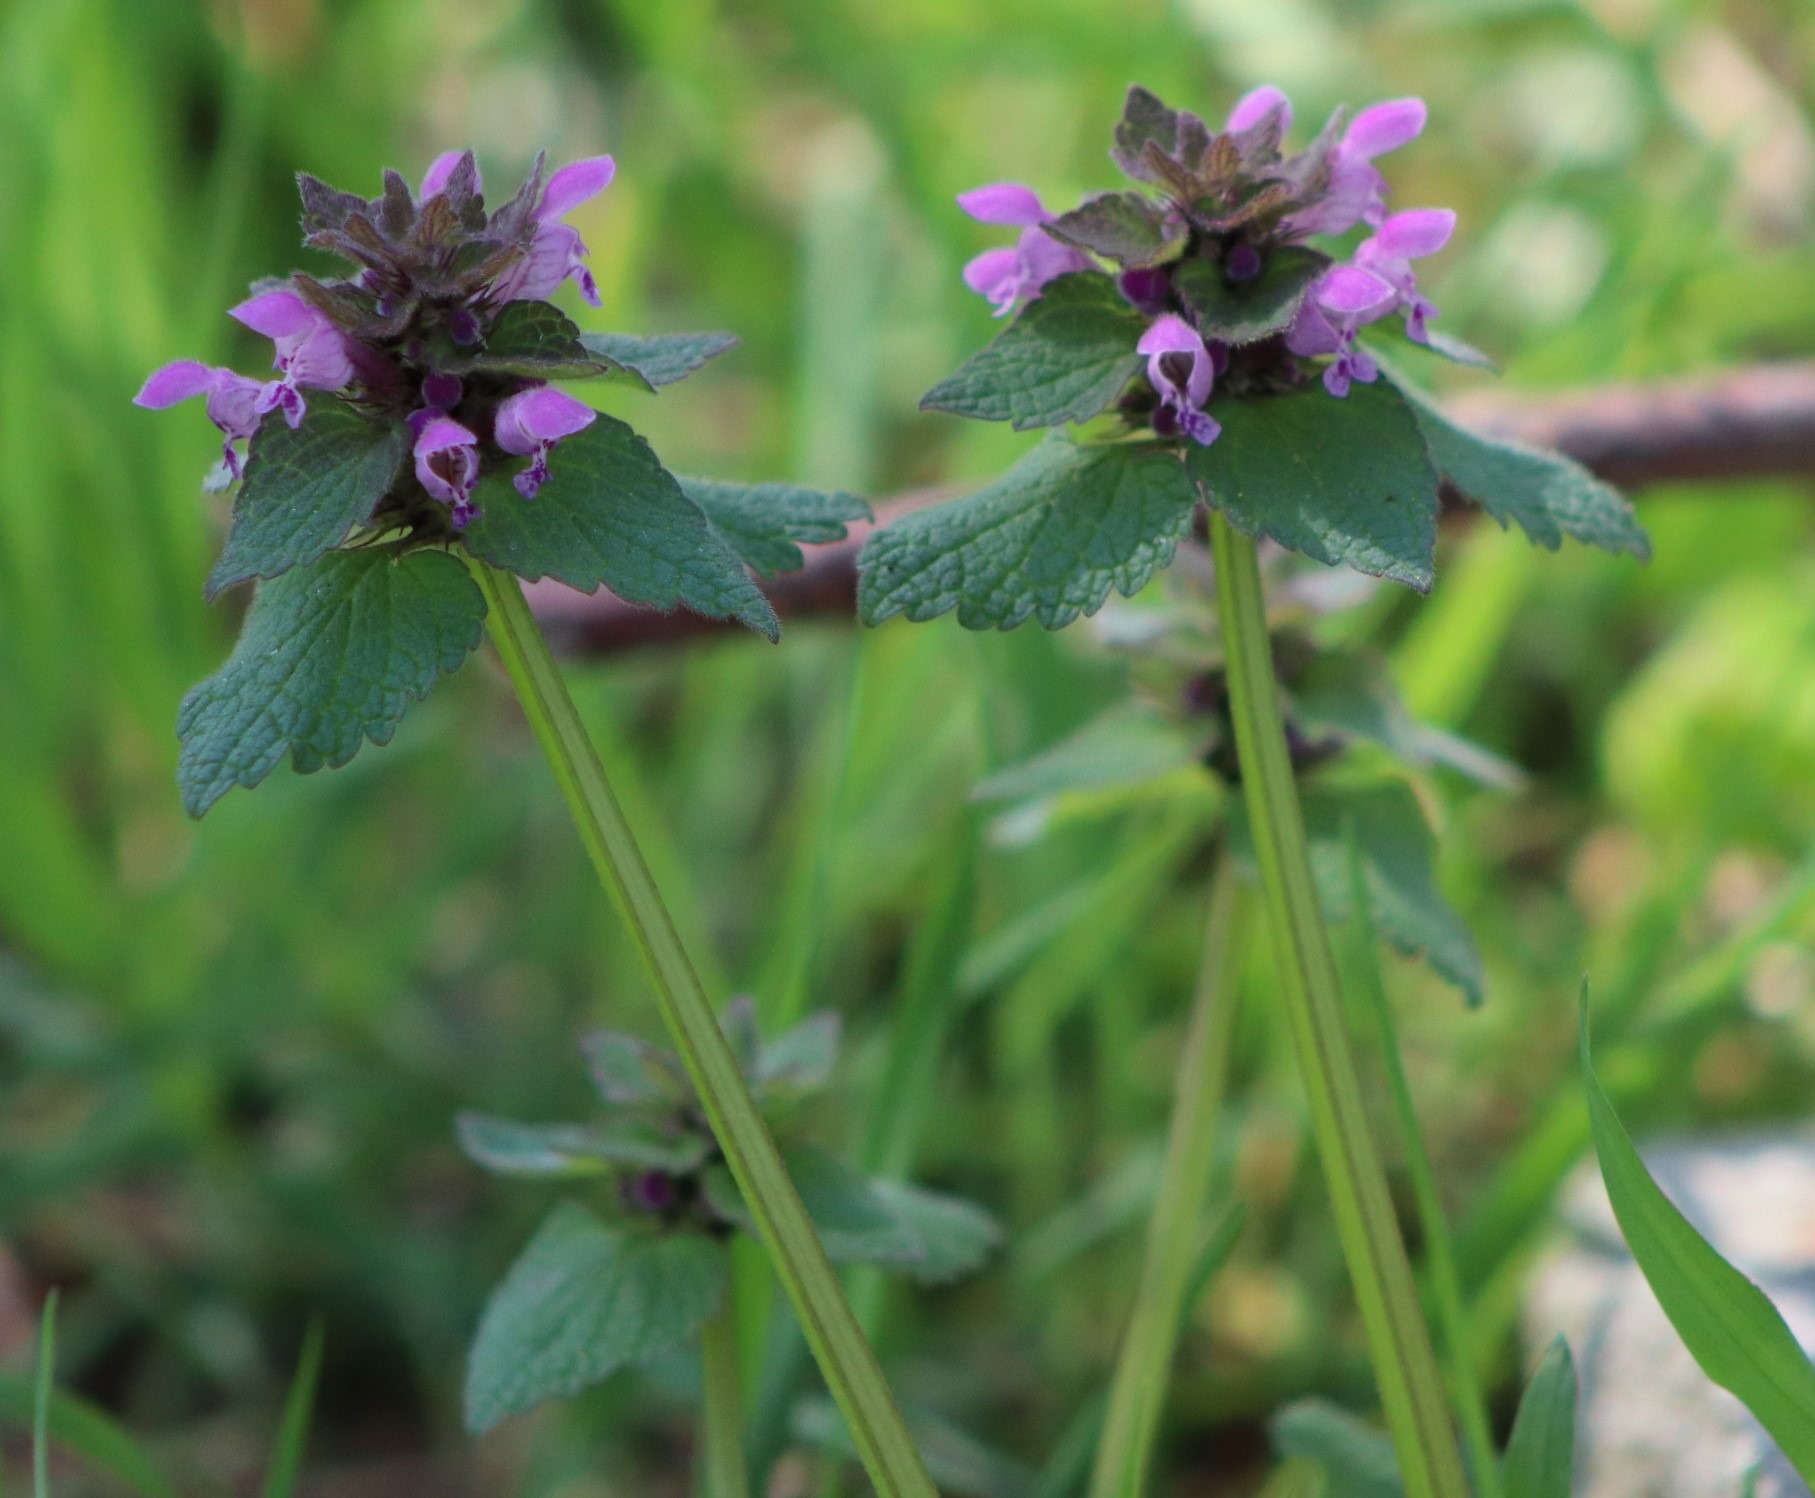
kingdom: Plantae
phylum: Tracheophyta
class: Magnoliopsida
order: Lamiales
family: Lamiaceae
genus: Lamium
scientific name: Lamium purpureum
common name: Rød tvetand
